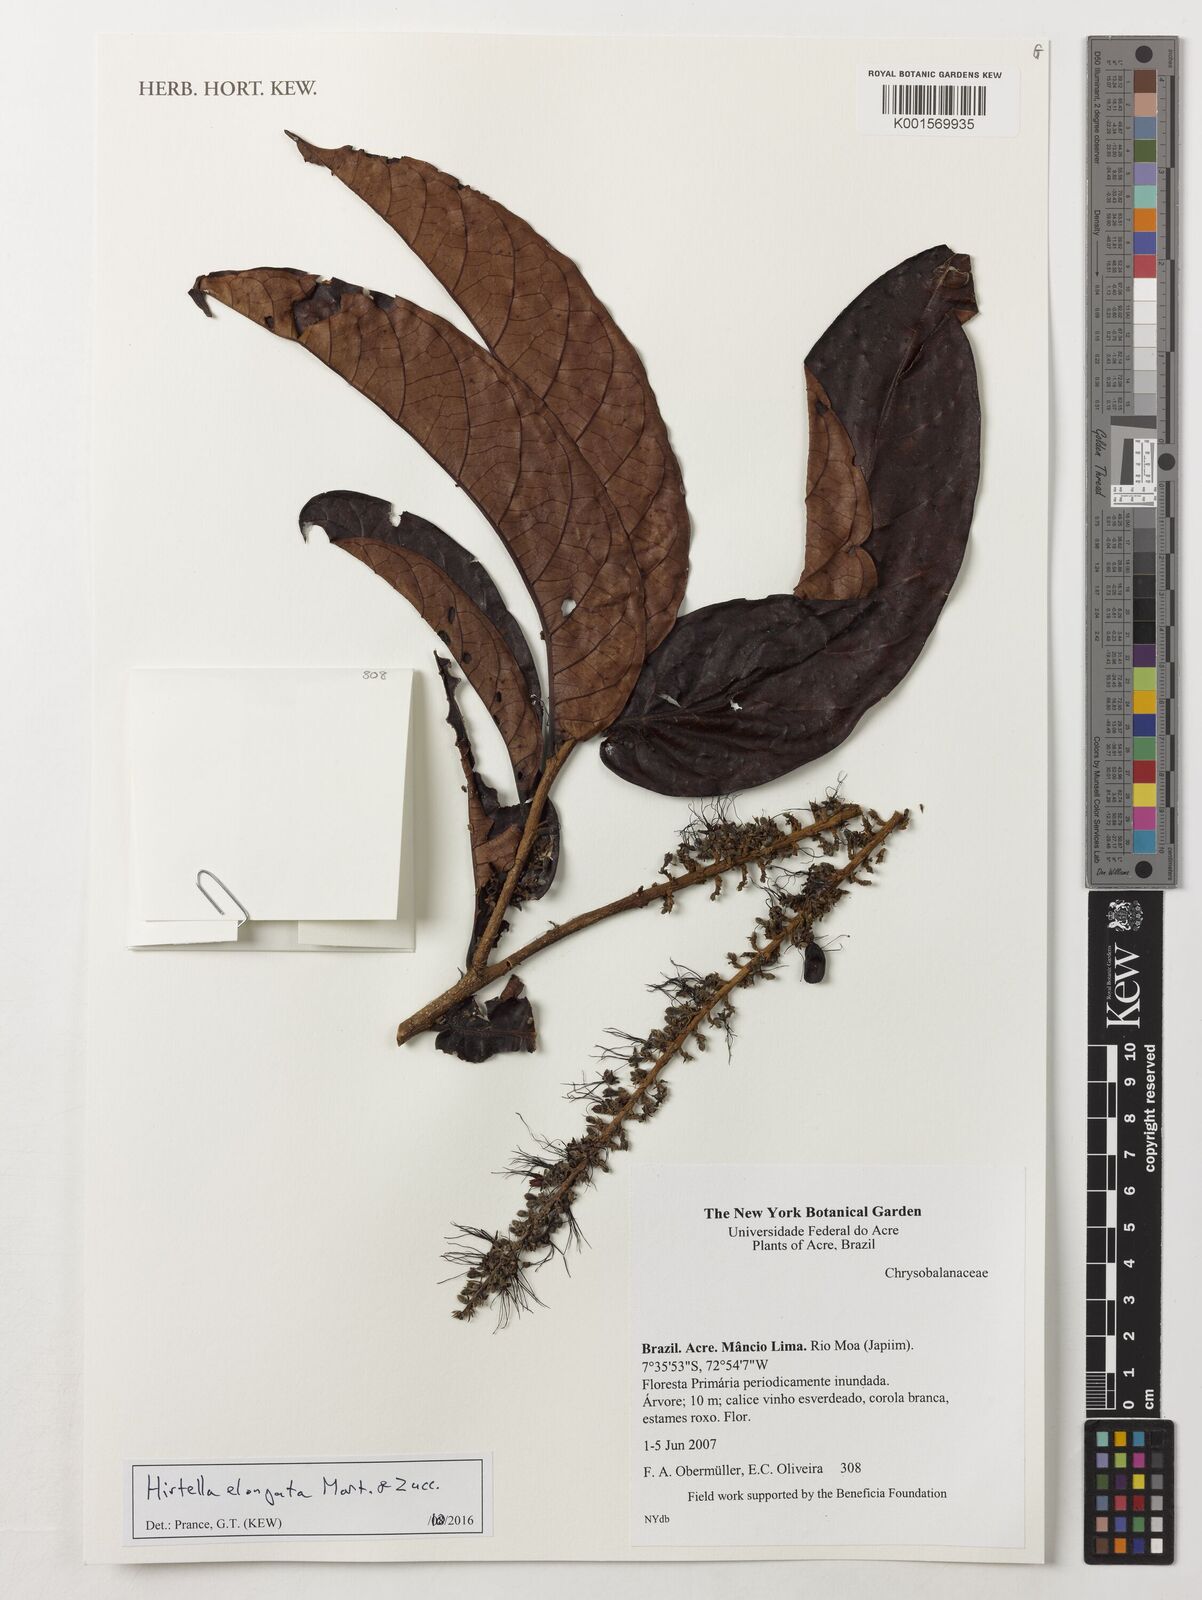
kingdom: Plantae
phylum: Tracheophyta
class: Magnoliopsida
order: Malpighiales
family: Chrysobalanaceae
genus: Hirtella
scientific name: Hirtella elongata
